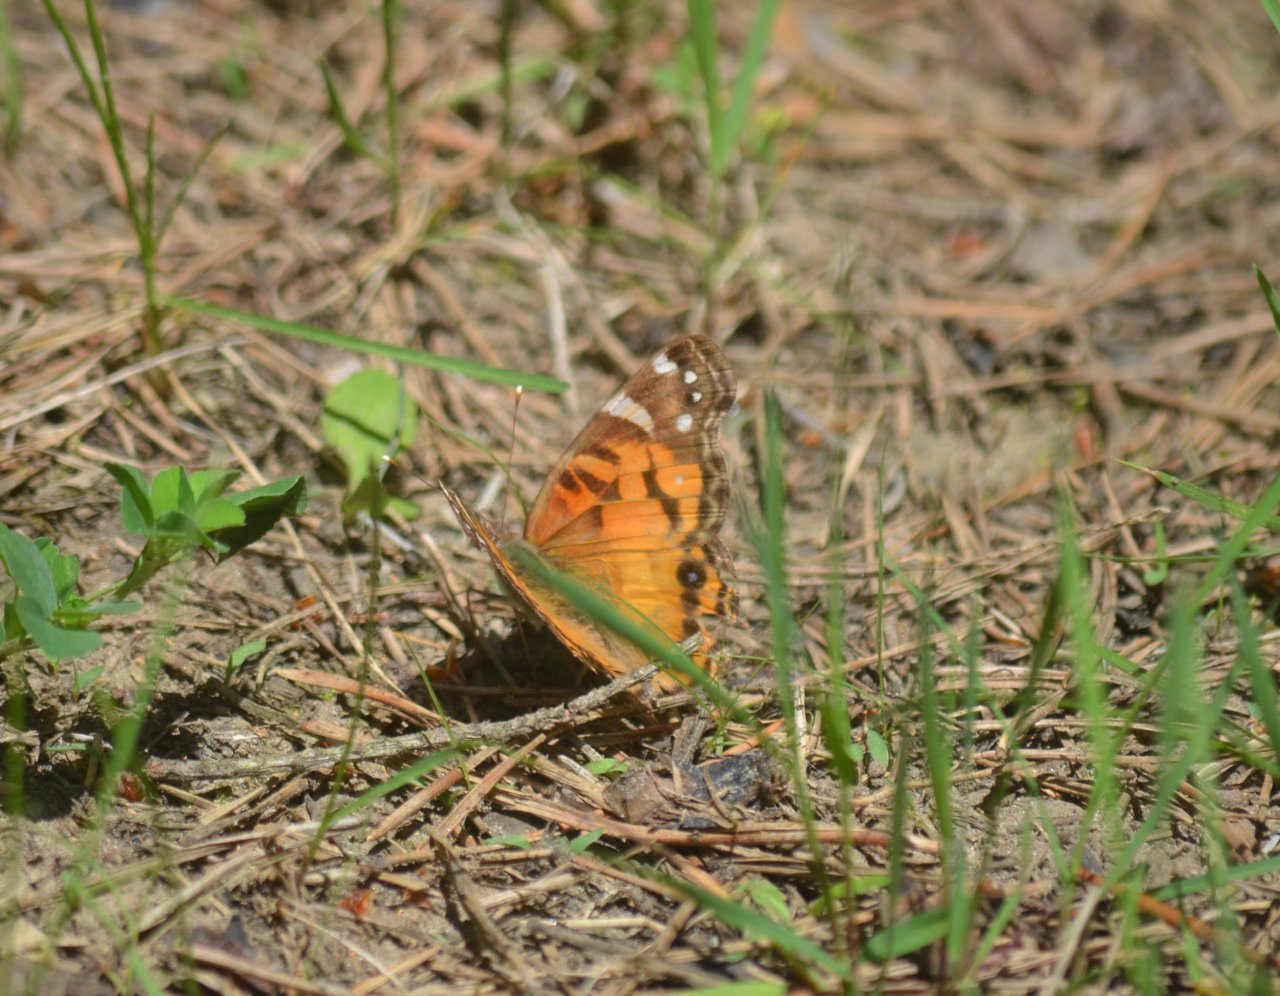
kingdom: Animalia
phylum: Arthropoda
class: Insecta
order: Lepidoptera
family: Nymphalidae
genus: Vanessa
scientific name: Vanessa virginiensis
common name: American Lady
